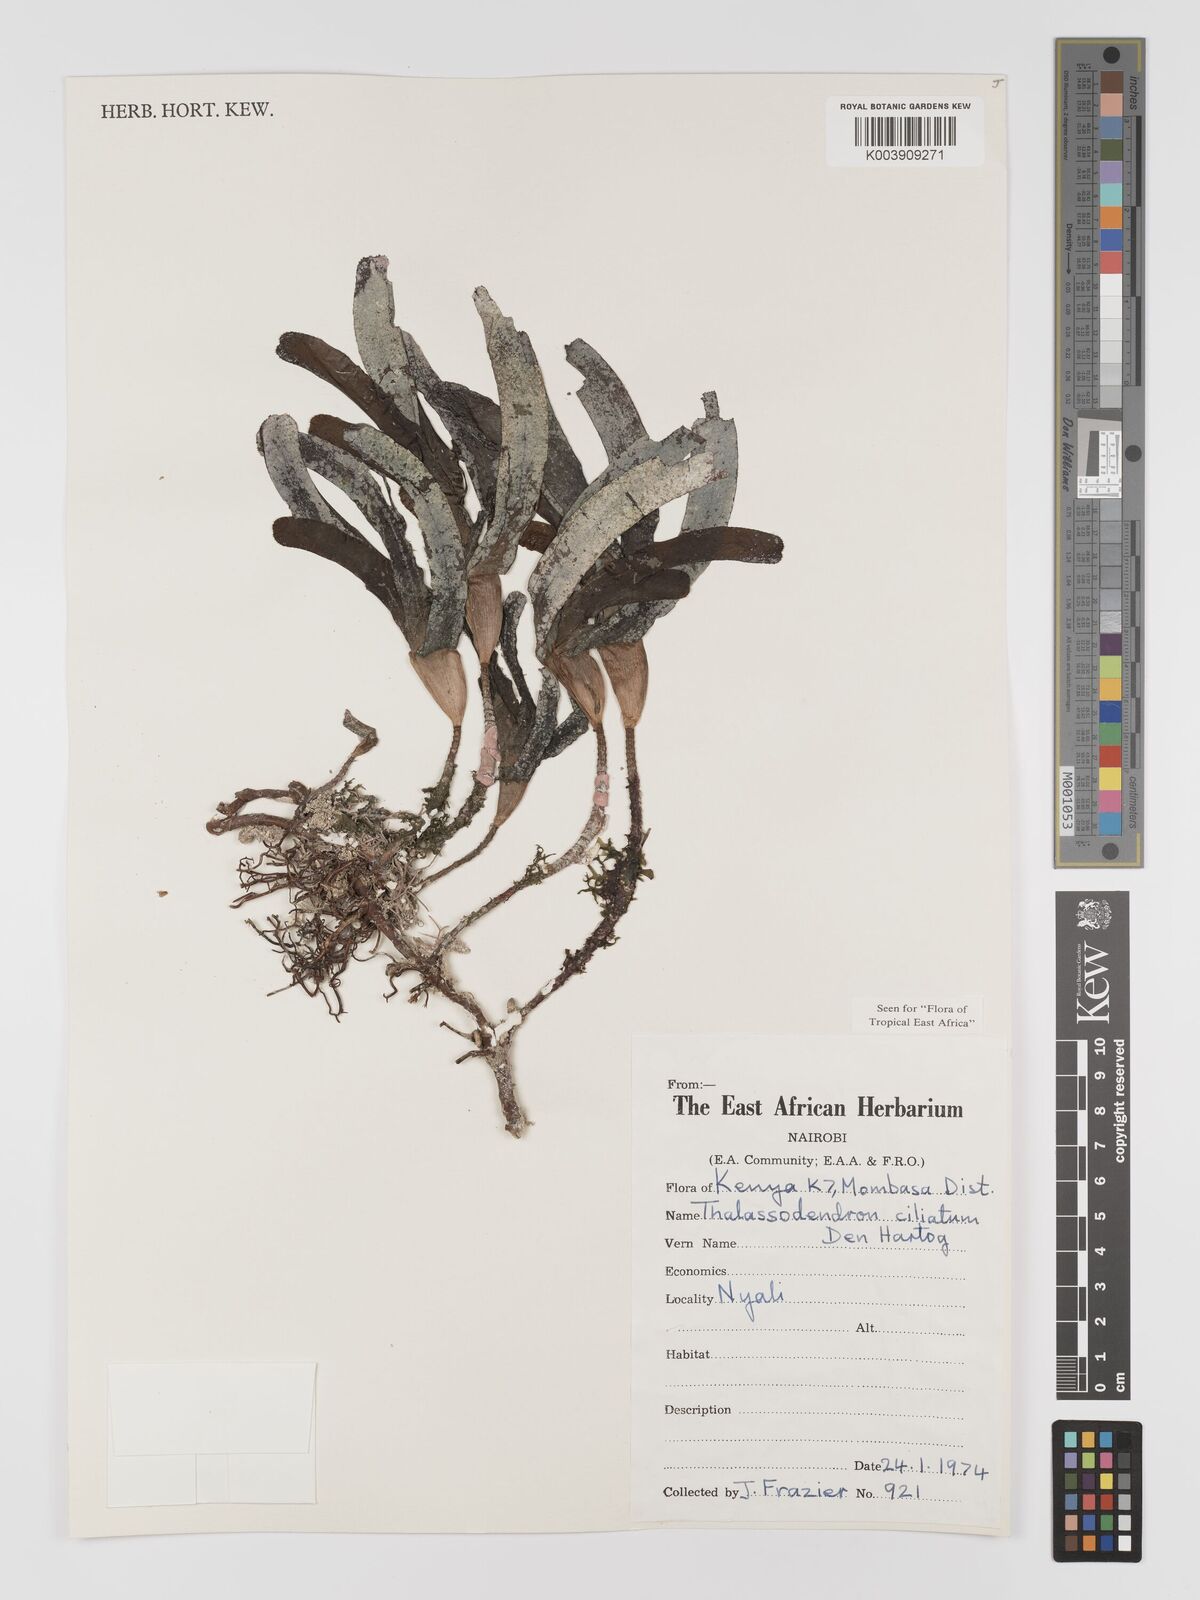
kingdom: Plantae
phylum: Tracheophyta
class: Liliopsida
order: Alismatales
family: Cymodoceaceae
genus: Thalassodendron
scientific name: Thalassodendron ciliatum
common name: Species code: tc
